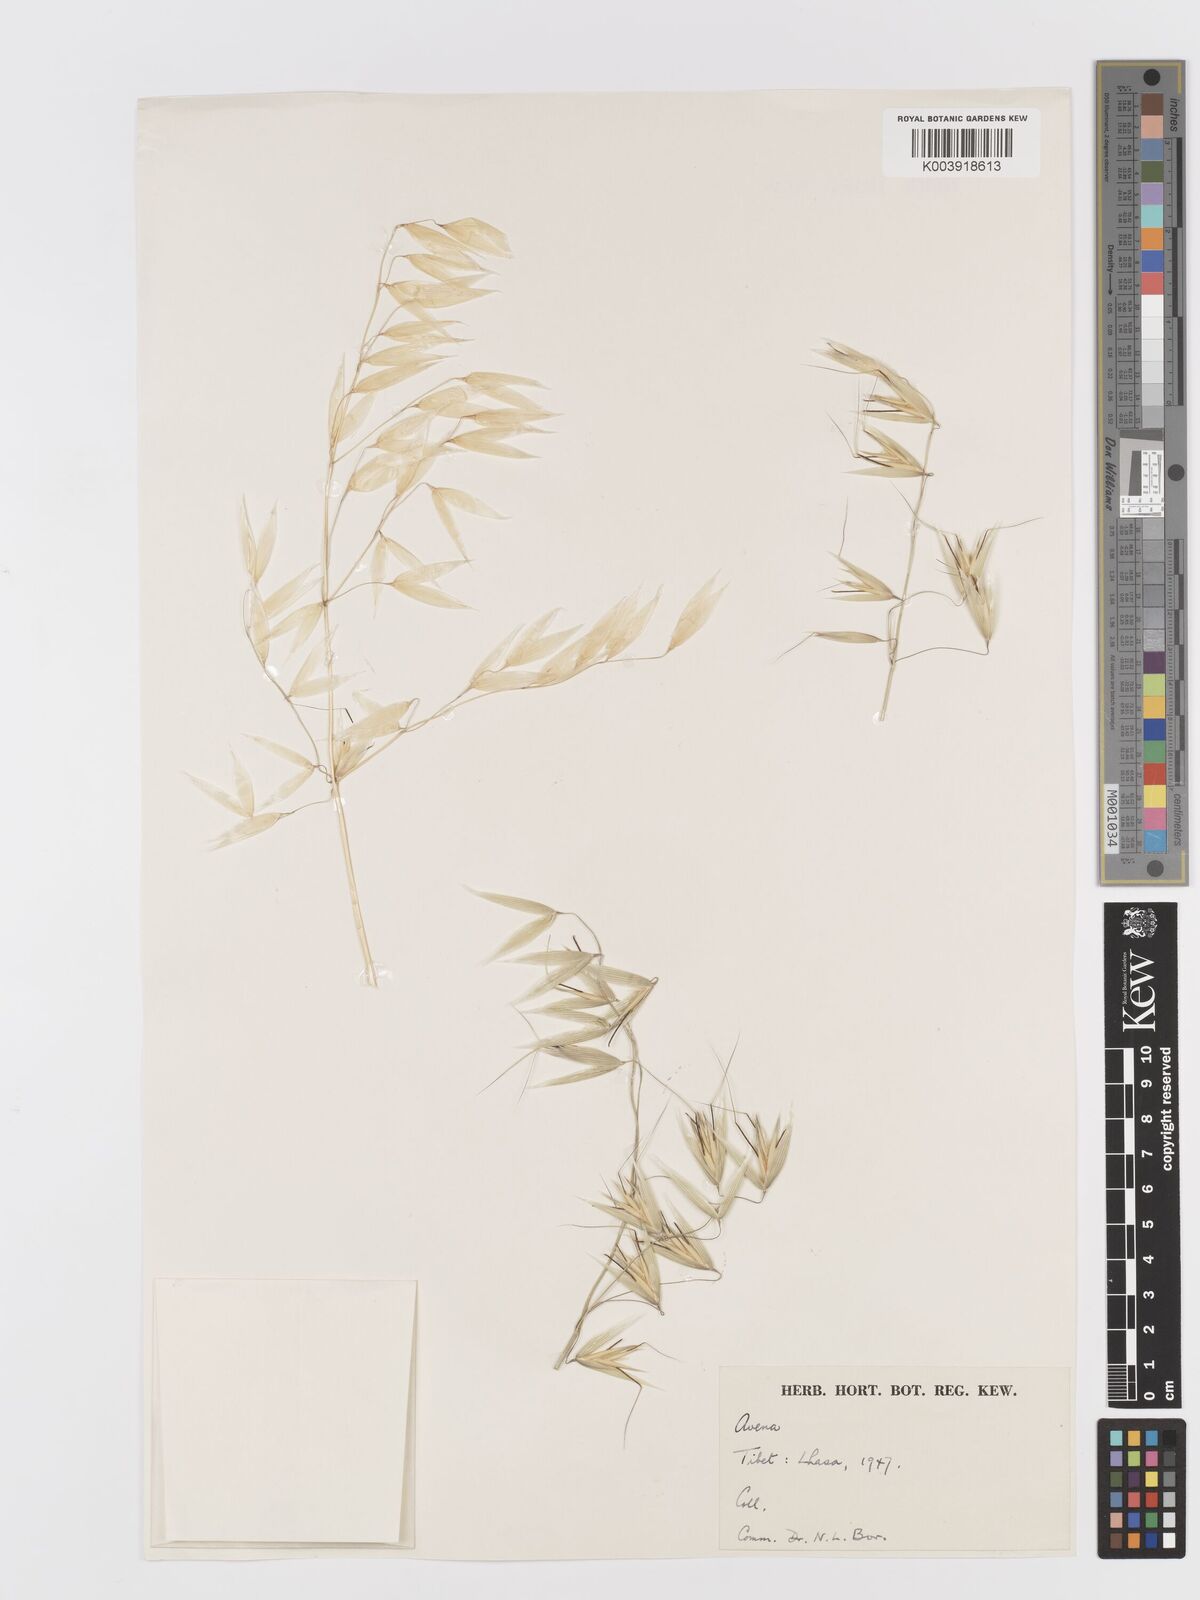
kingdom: Plantae
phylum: Tracheophyta
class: Liliopsida
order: Poales
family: Poaceae
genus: Avena
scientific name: Avena fatua
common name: Wild oat
